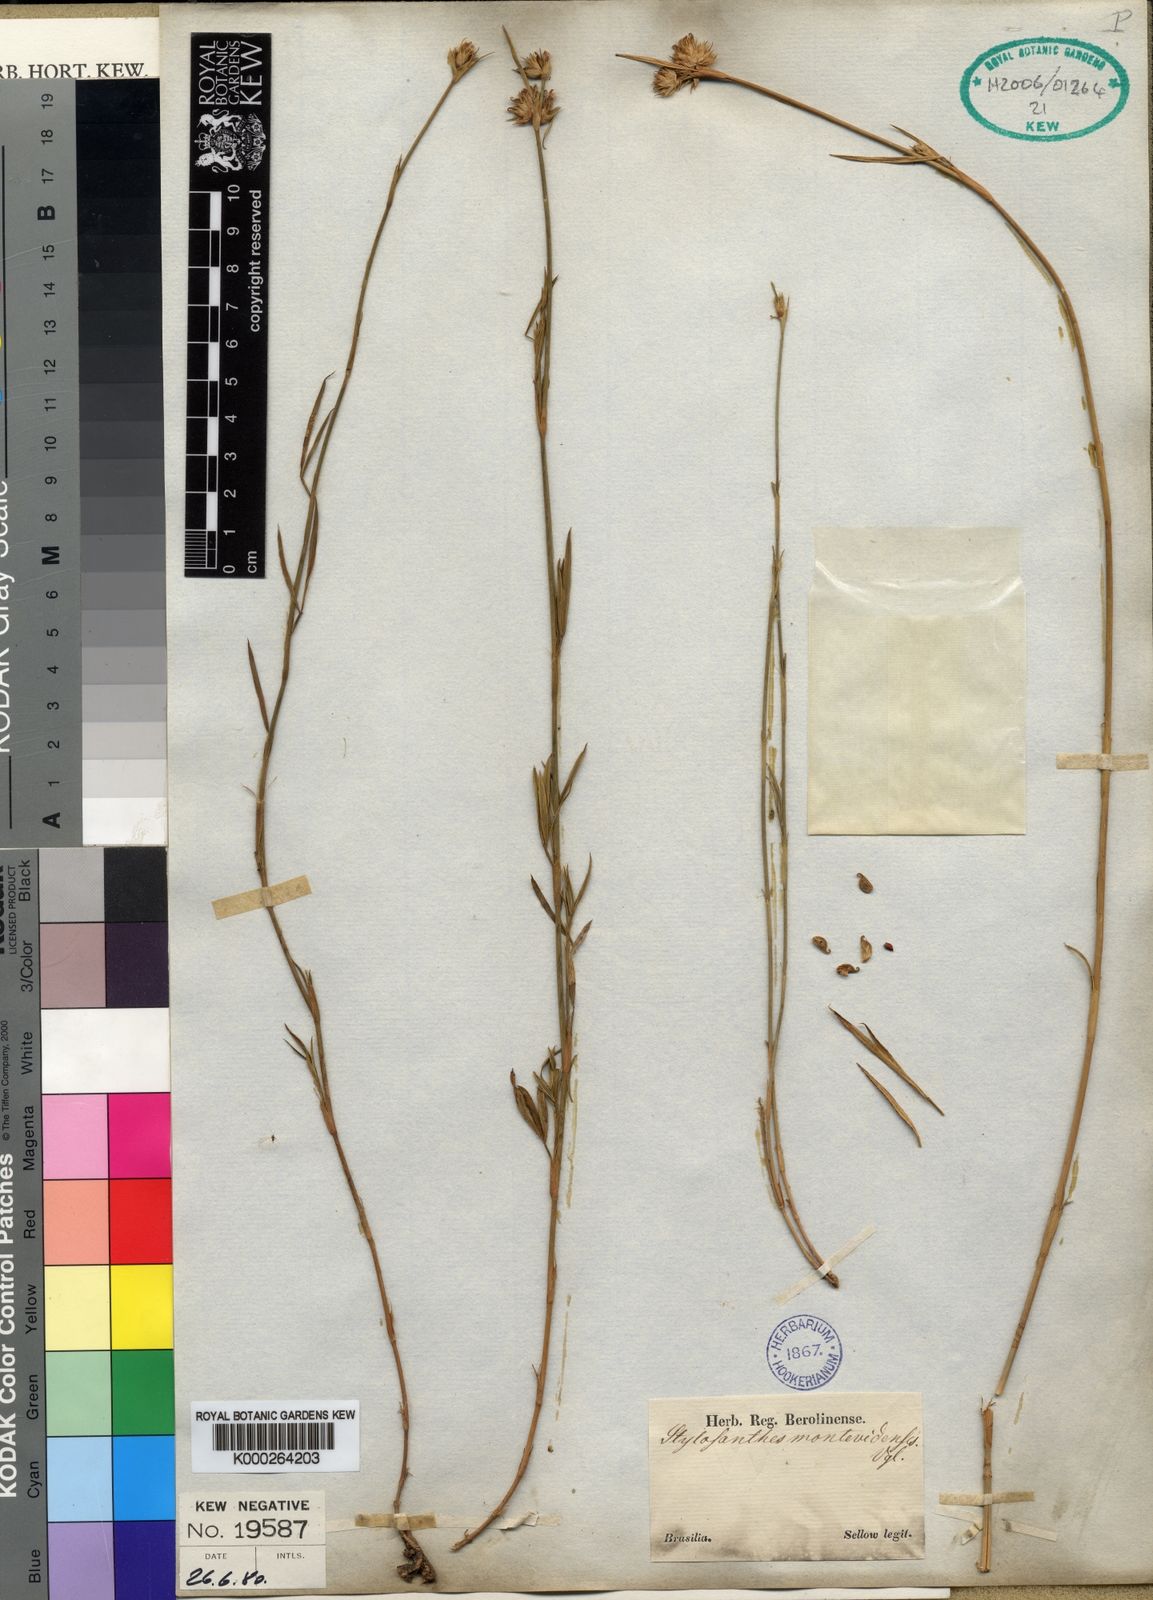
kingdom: Plantae
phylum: Tracheophyta
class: Magnoliopsida
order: Fabales
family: Fabaceae
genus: Stylosanthes
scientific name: Stylosanthes montevidensis
